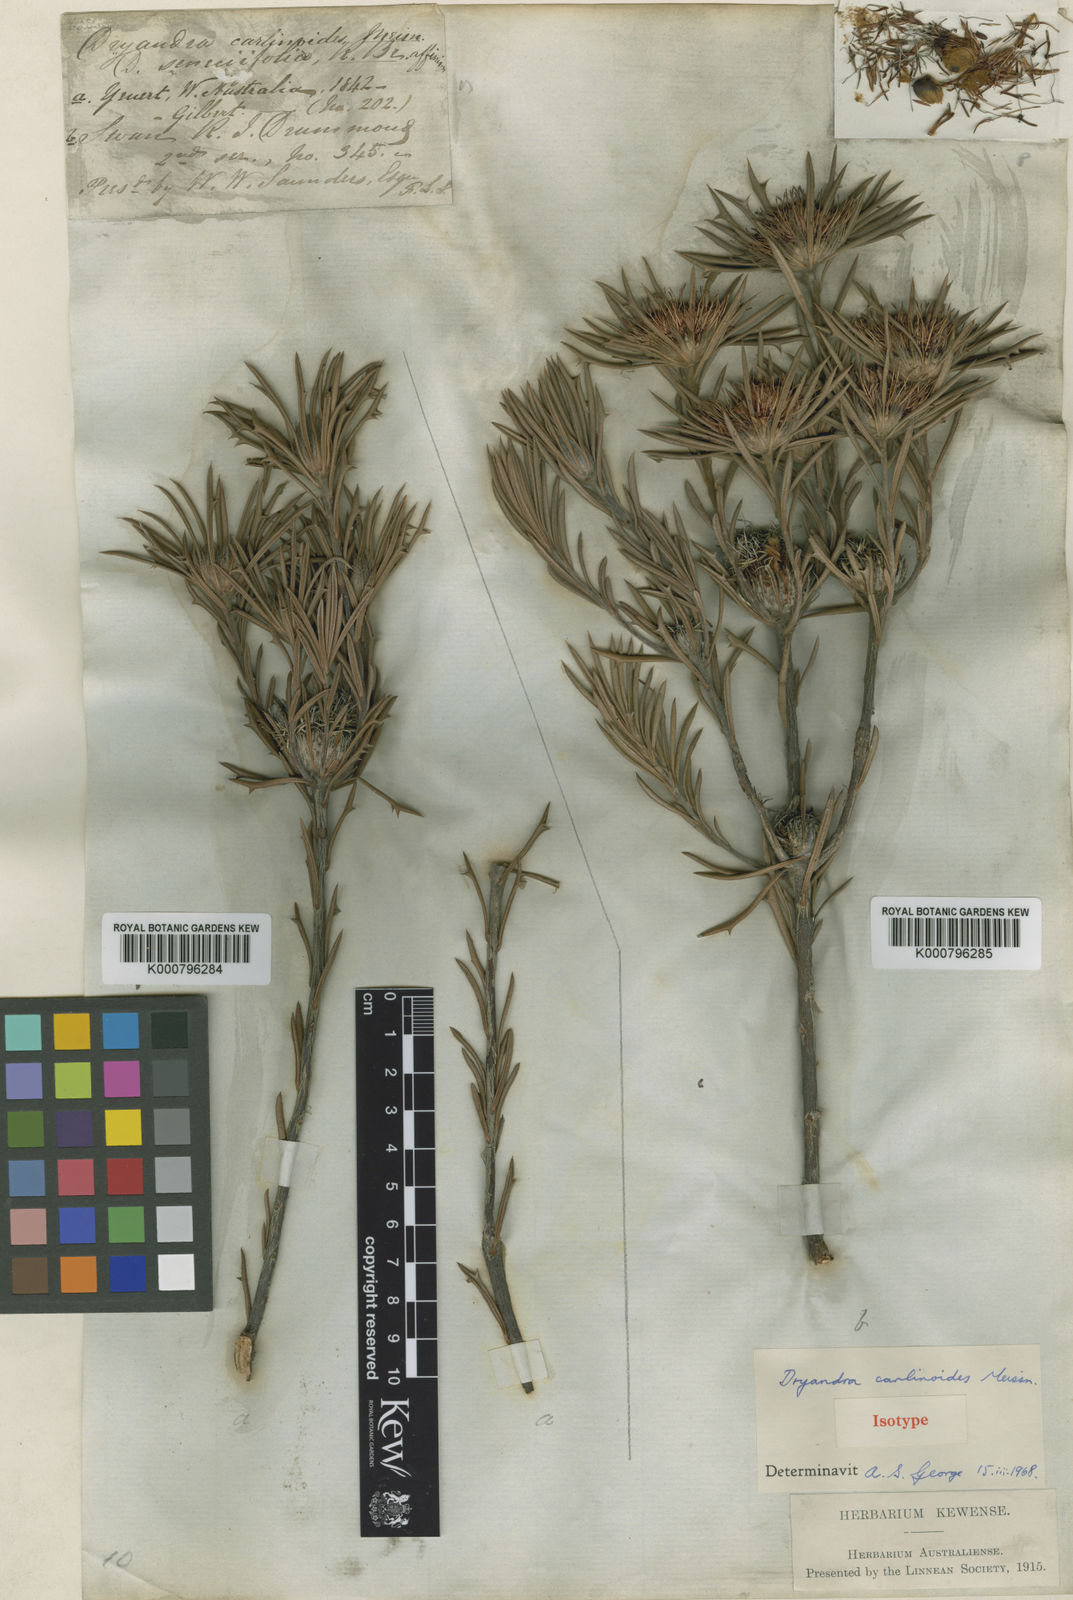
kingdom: Plantae
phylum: Tracheophyta
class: Magnoliopsida
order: Proteales
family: Proteaceae
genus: Banksia
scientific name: Banksia carlinoides
